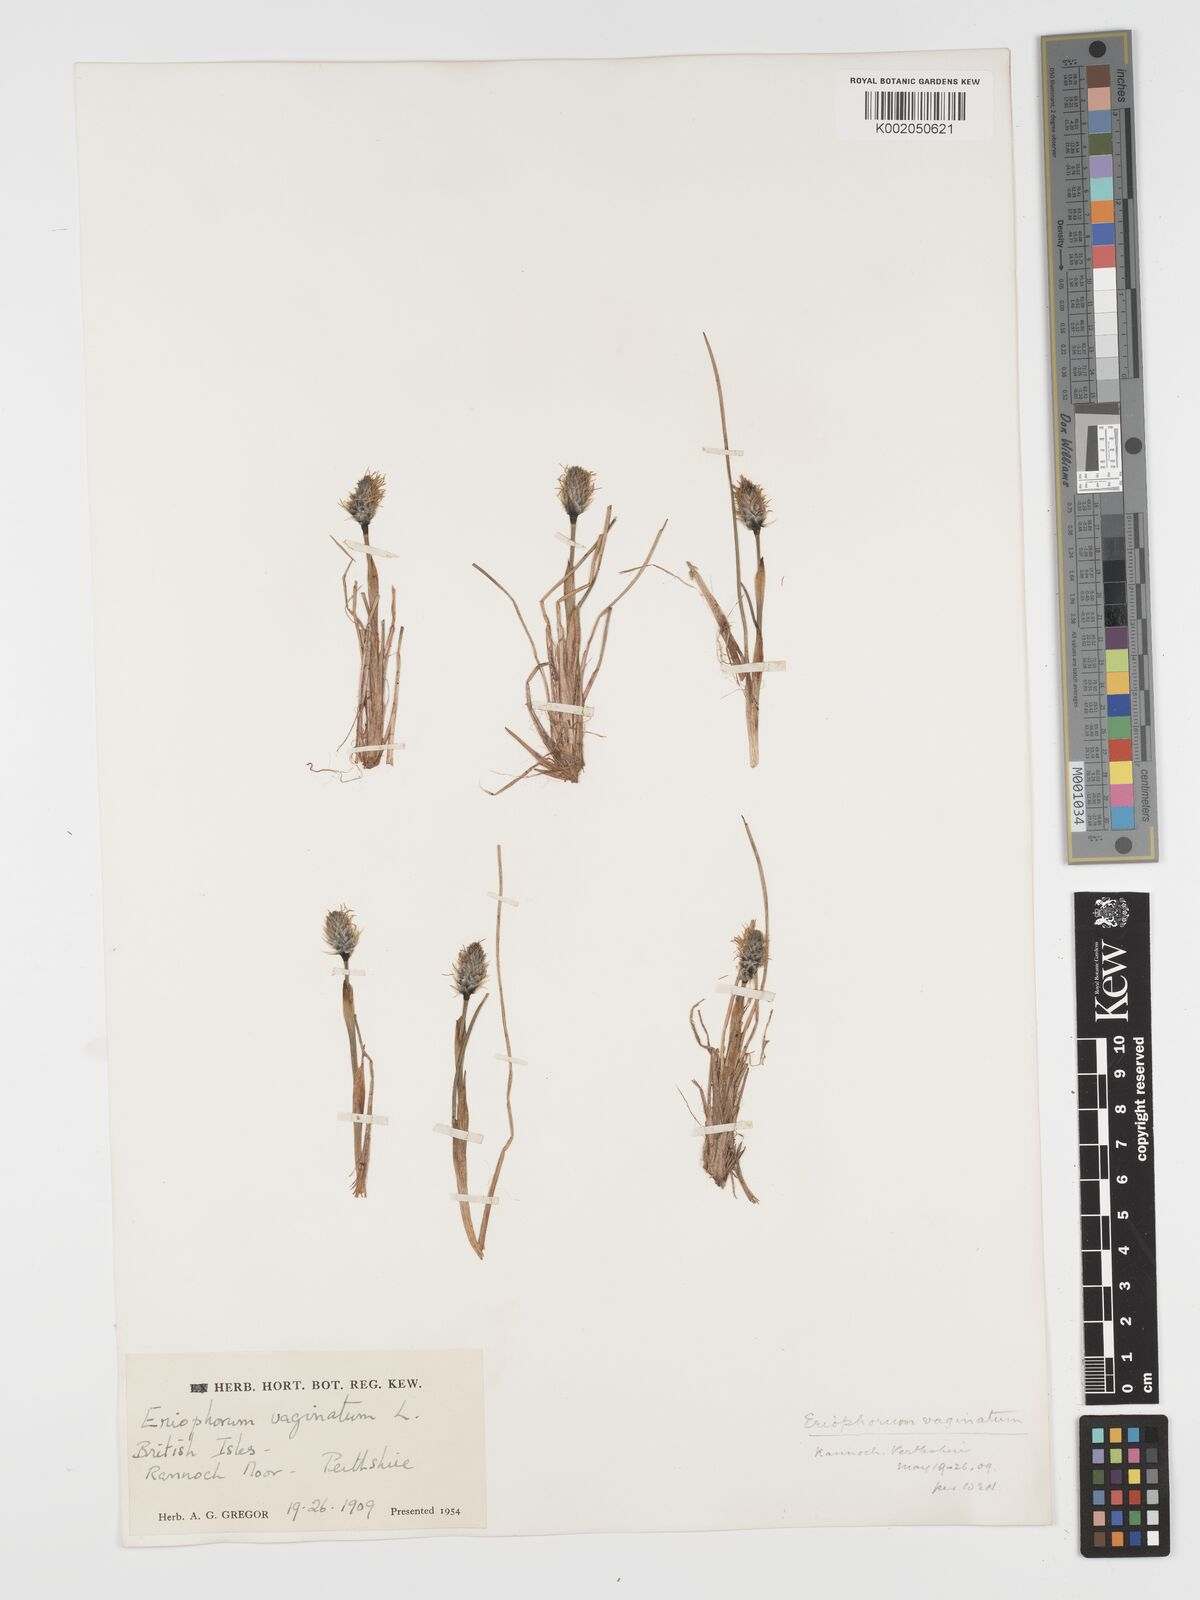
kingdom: Plantae
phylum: Tracheophyta
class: Liliopsida
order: Poales
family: Cyperaceae
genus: Eriophorum
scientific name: Eriophorum vaginatum
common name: Hare's-tail cottongrass
